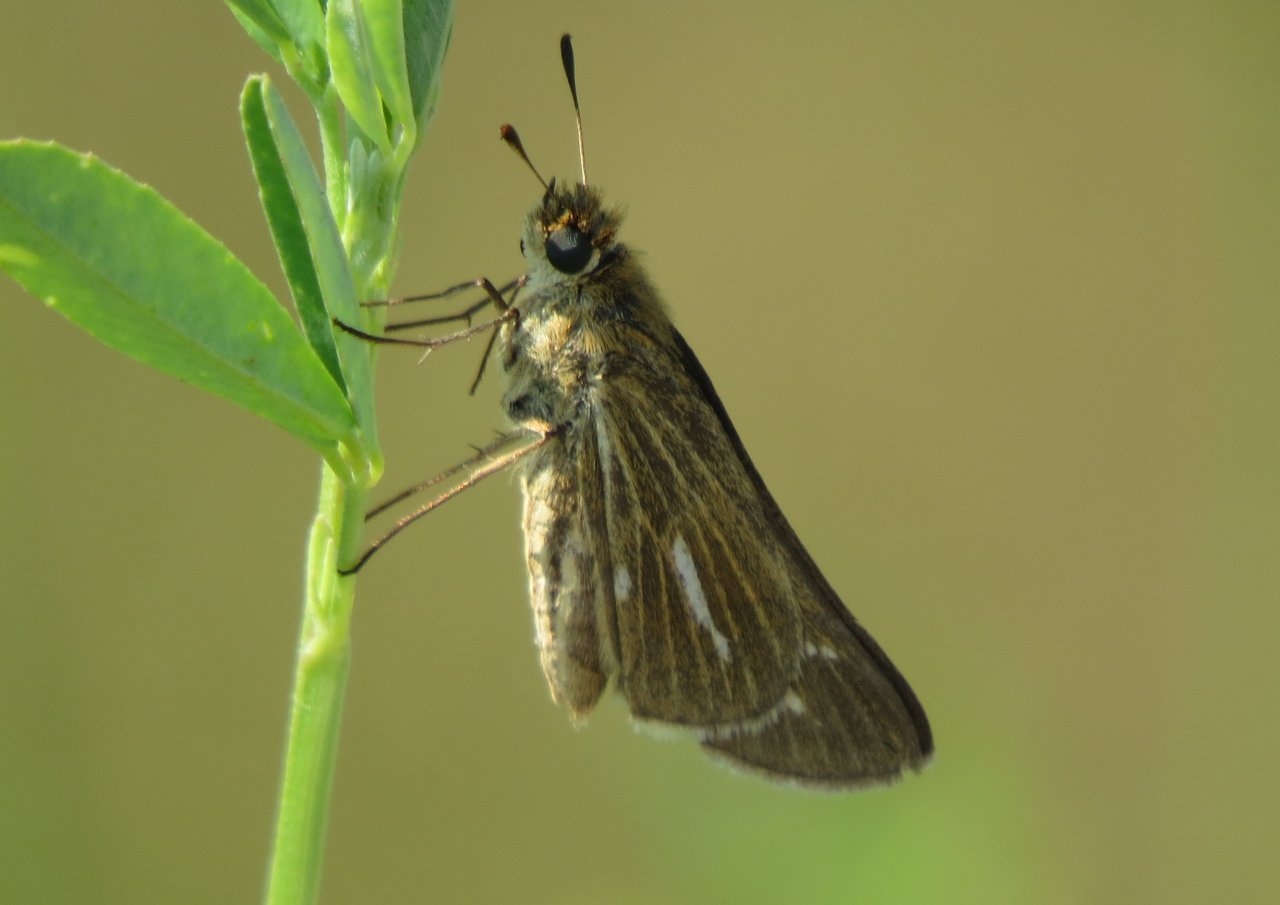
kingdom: Animalia
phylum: Arthropoda
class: Insecta
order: Lepidoptera
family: Hesperiidae
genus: Panoquina
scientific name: Panoquina panoquin
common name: Salt Marsh Skipper
